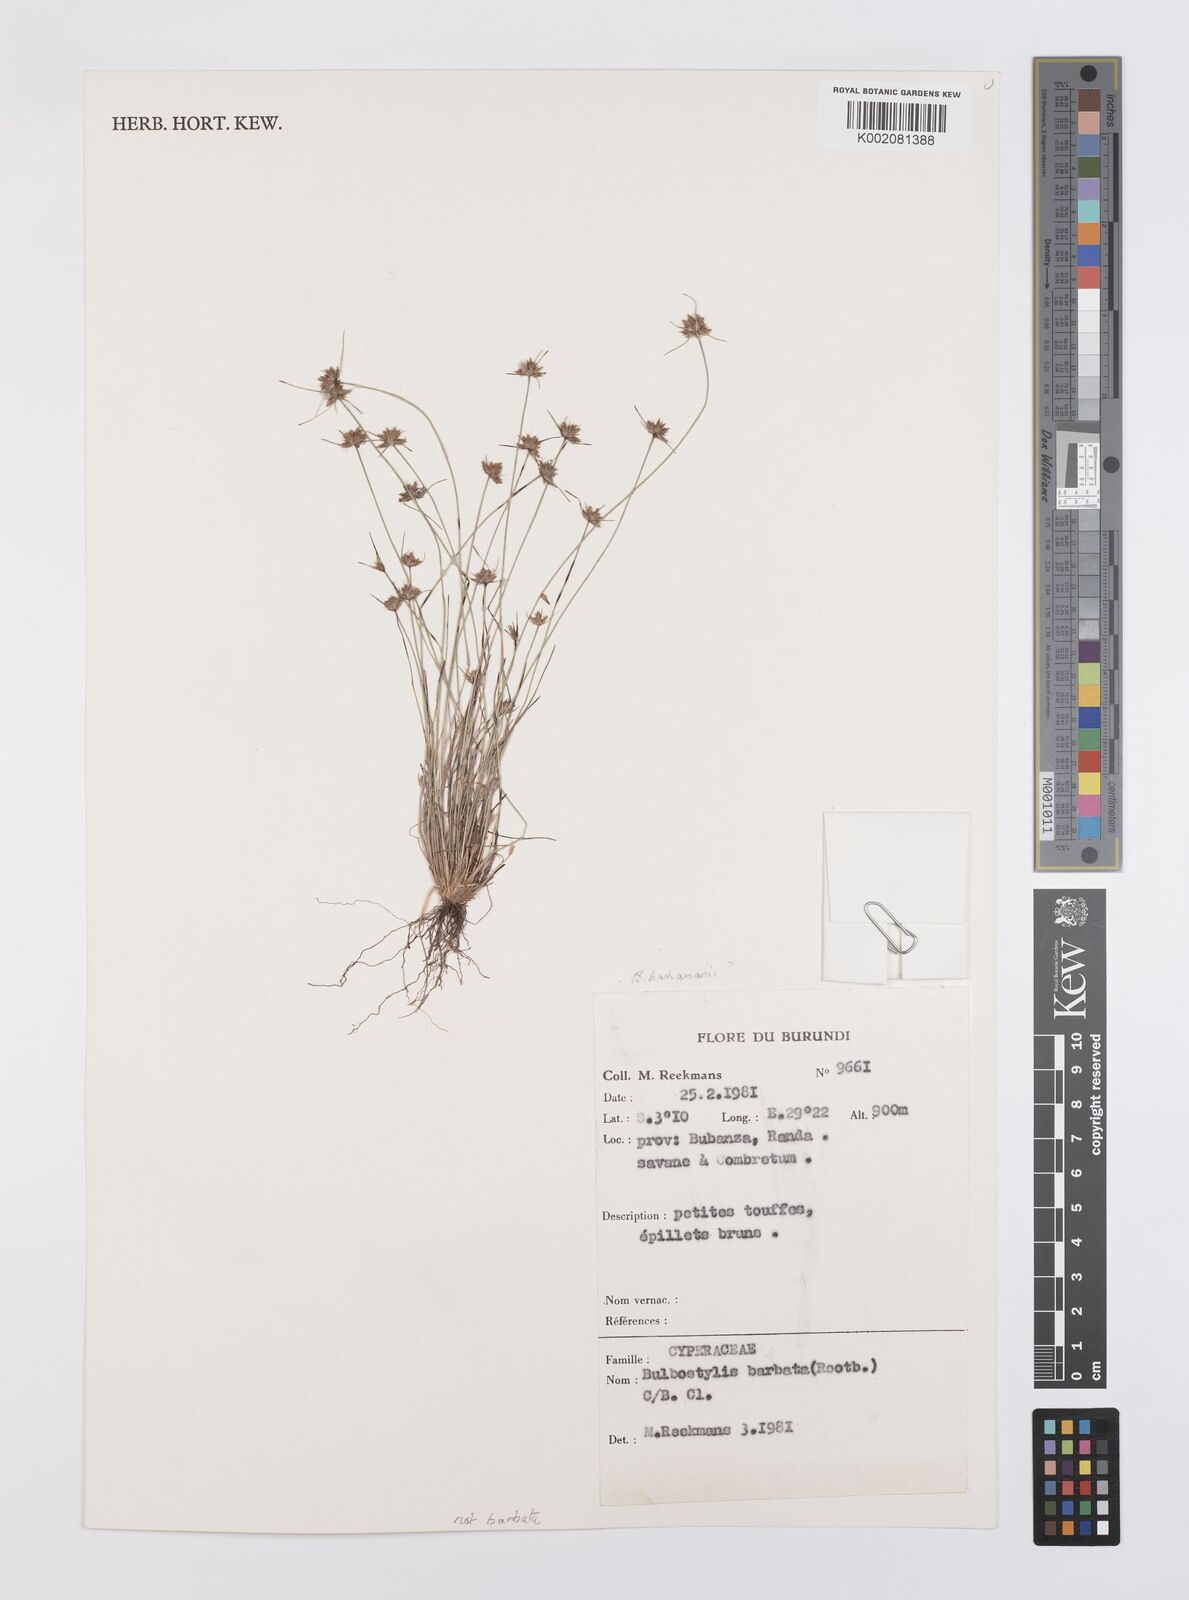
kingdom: Plantae
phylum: Tracheophyta
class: Liliopsida
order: Poales
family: Cyperaceae
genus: Bulbostylis
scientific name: Bulbostylis barbata
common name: Watergrass
